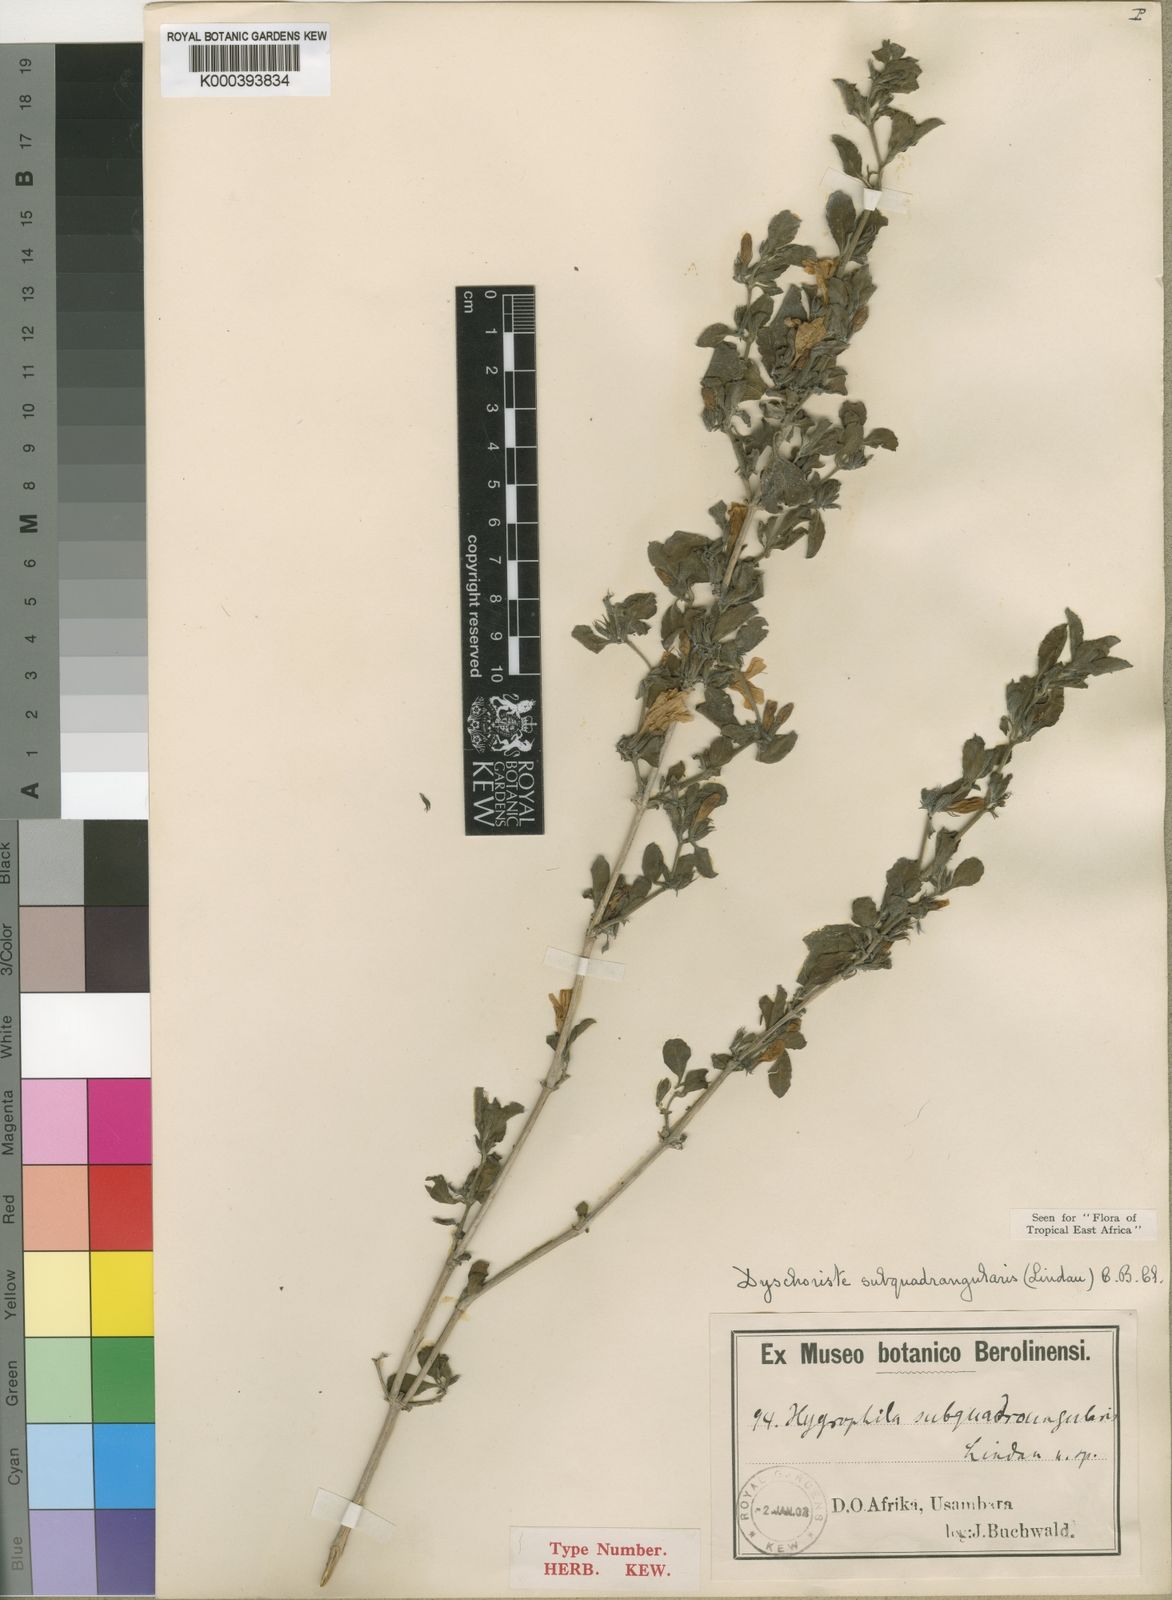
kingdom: Plantae
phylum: Tracheophyta
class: Magnoliopsida
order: Lamiales
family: Acanthaceae
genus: Dyschoriste
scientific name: Dyschoriste subquadrangularis
